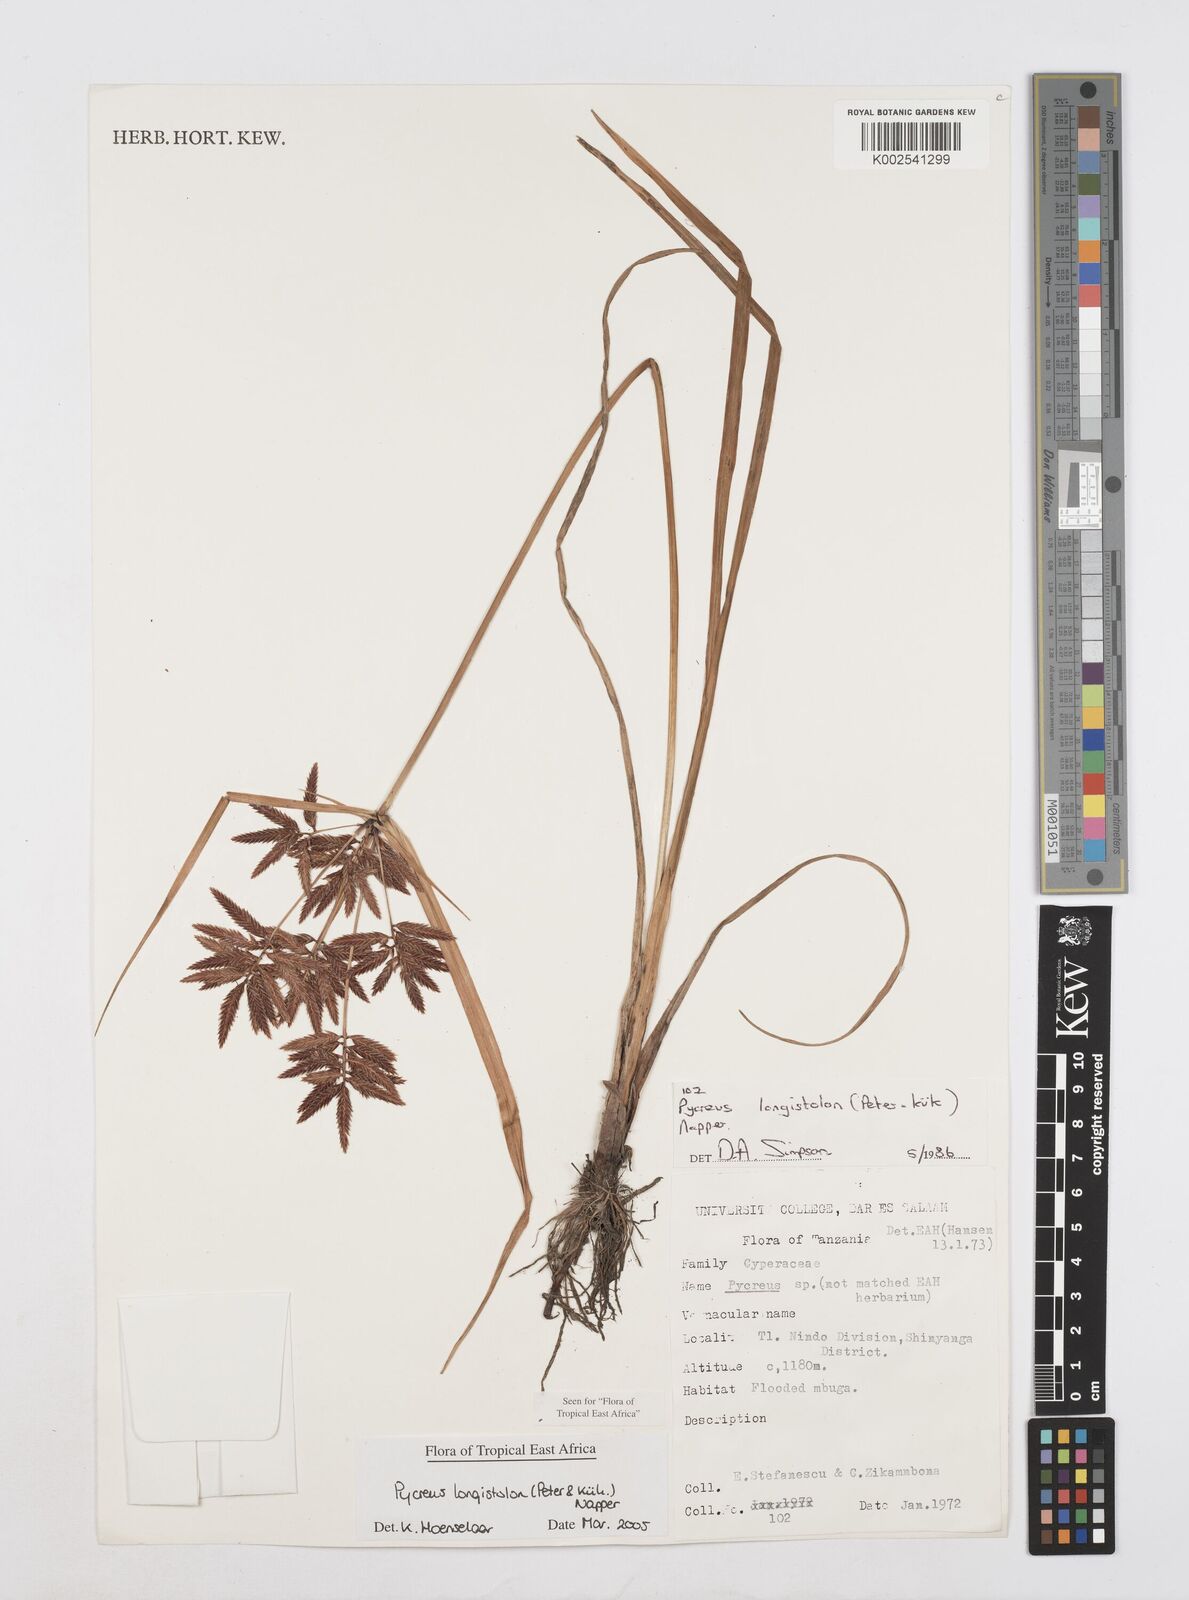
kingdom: Plantae
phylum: Tracheophyta
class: Liliopsida
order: Poales
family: Cyperaceae
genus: Cyperus
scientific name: Cyperus chrysanthus
